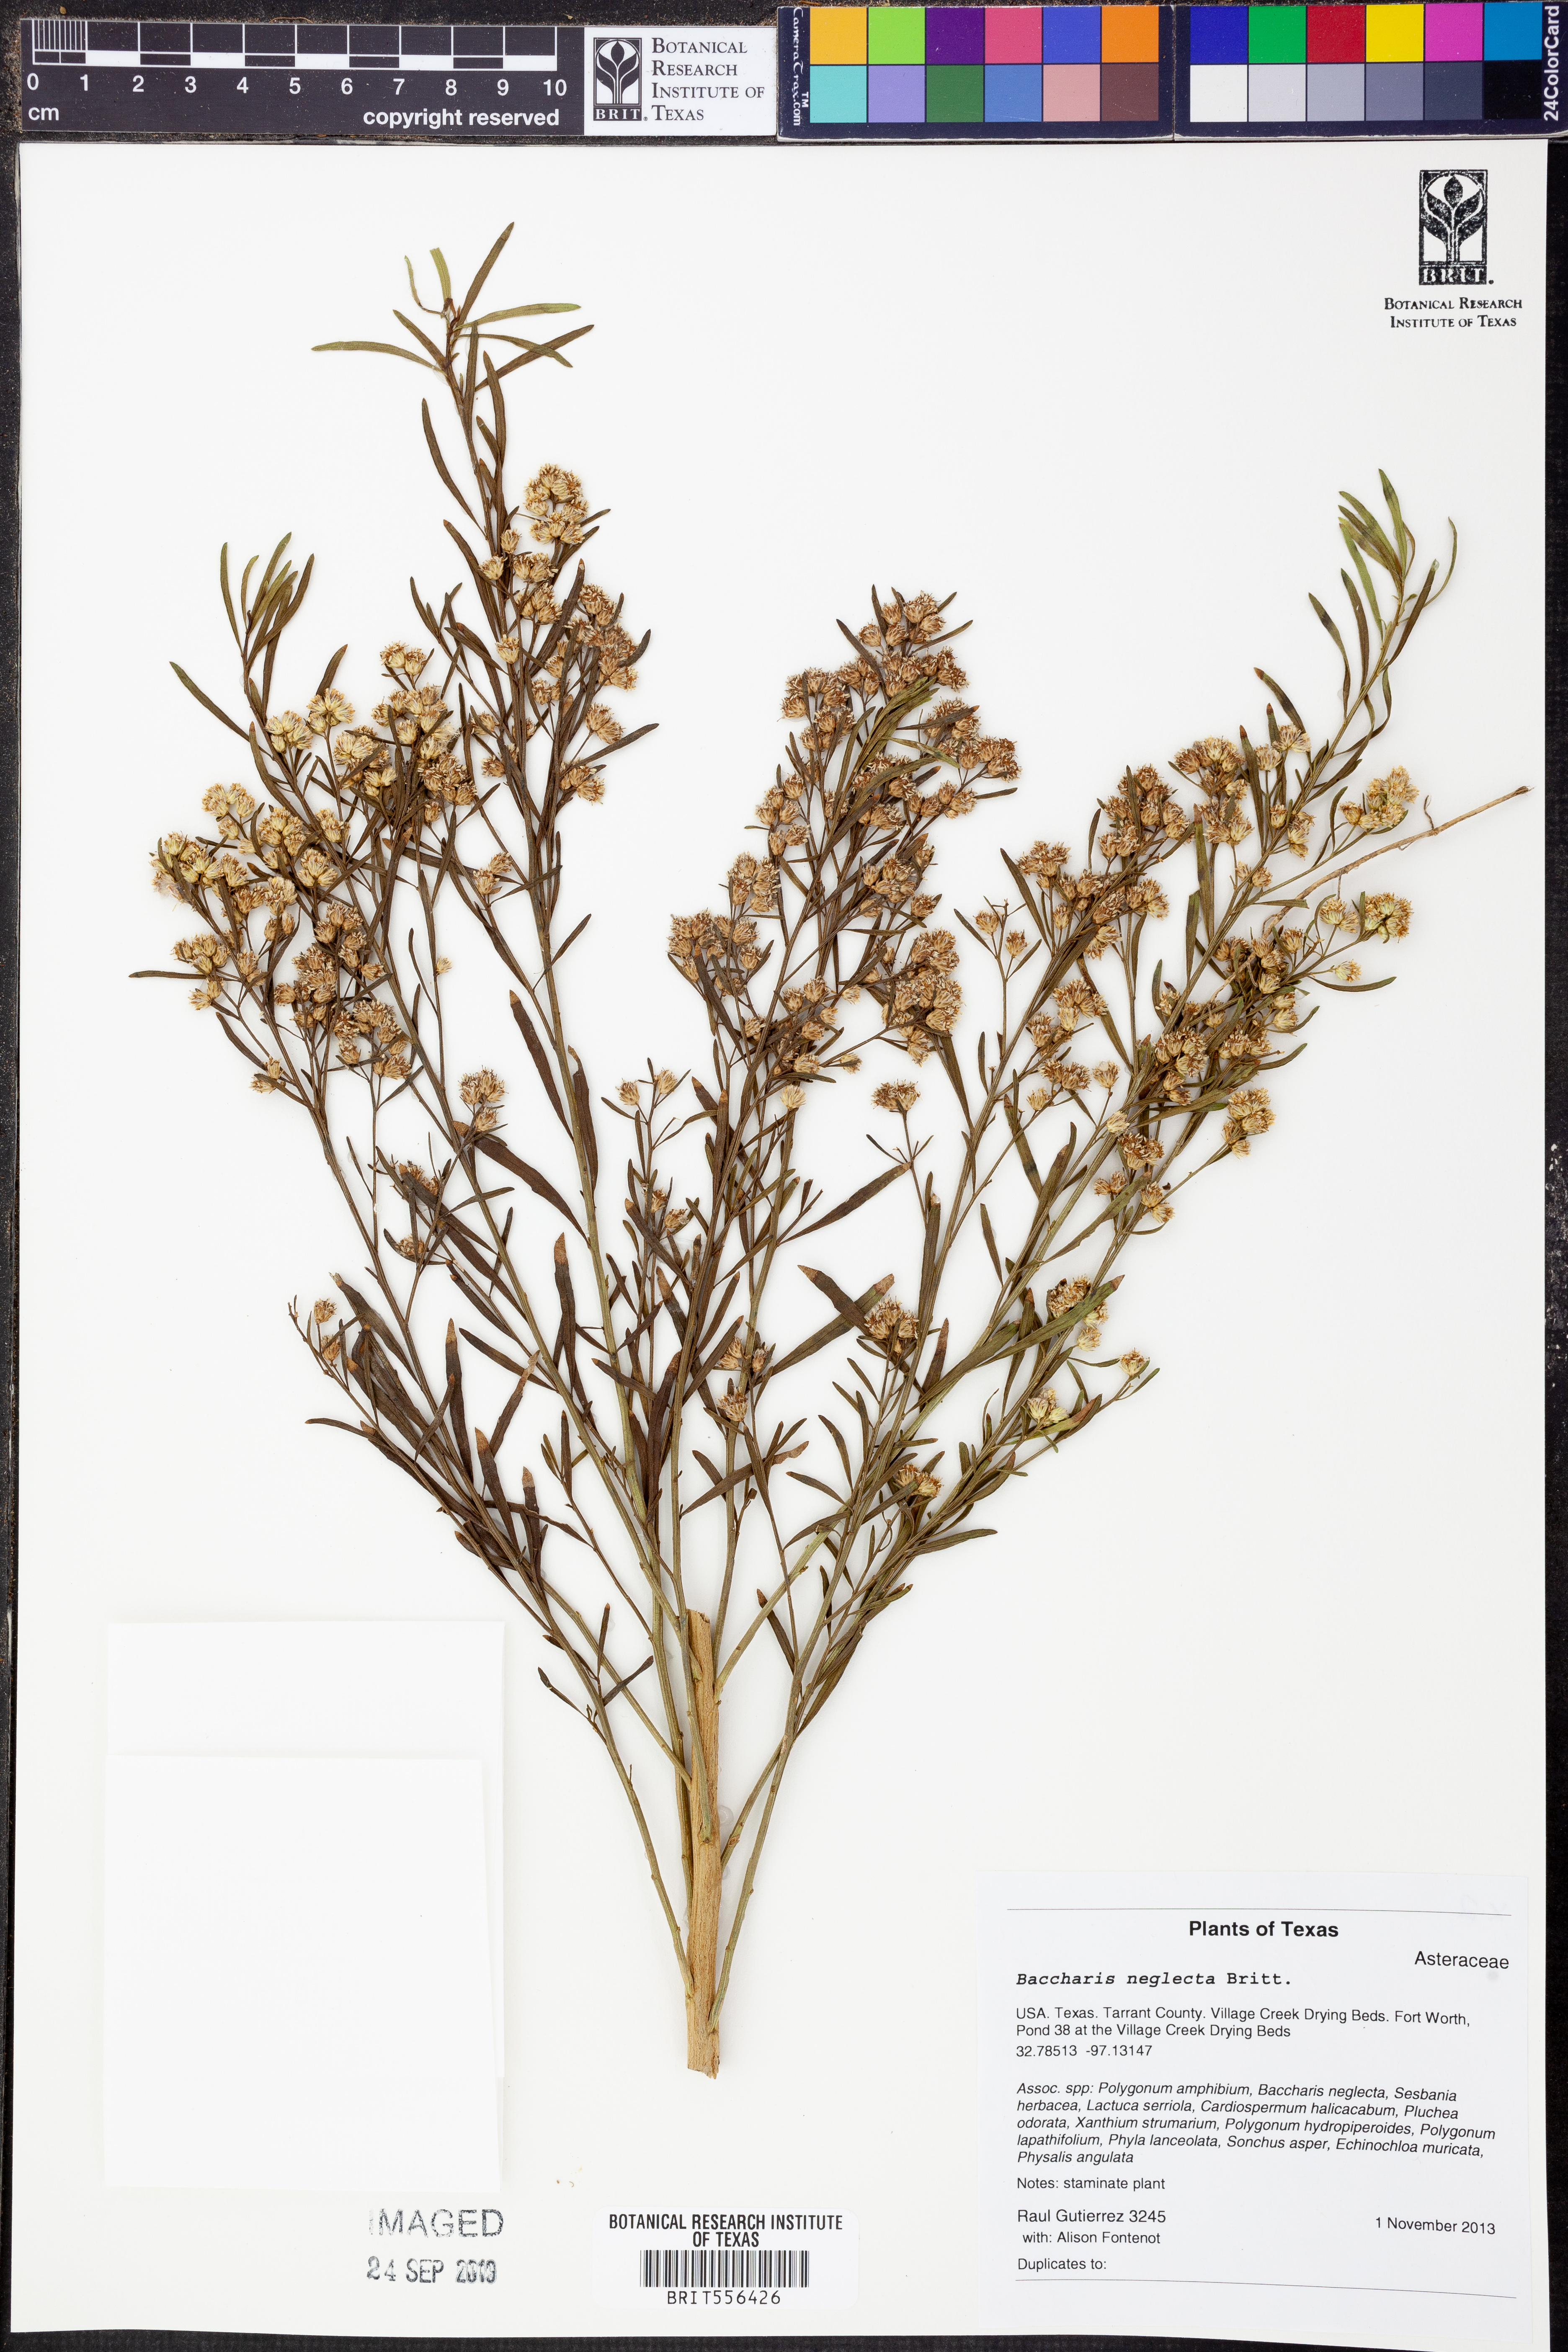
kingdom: Plantae
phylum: Tracheophyta
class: Magnoliopsida
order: Asterales
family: Asteraceae
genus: Baccharis
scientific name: Baccharis neglecta
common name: Roosevelt-weed
